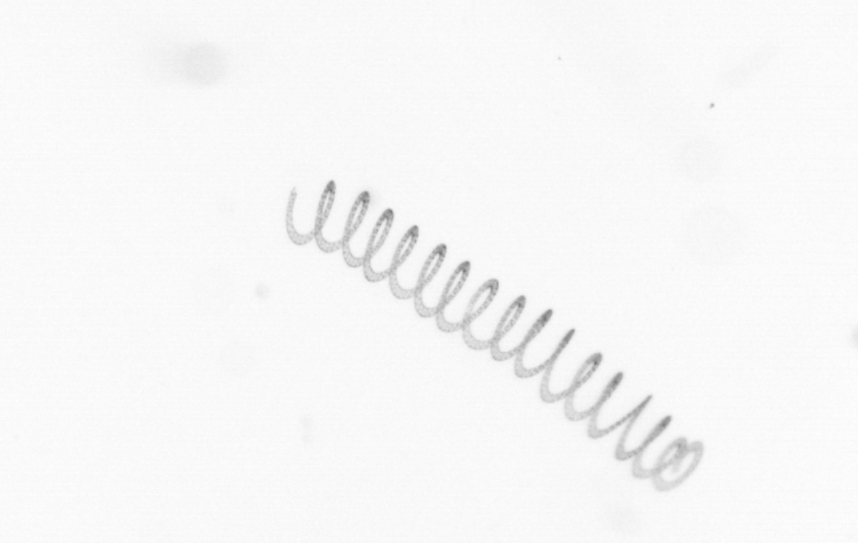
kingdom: Chromista
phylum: Ochrophyta
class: Bacillariophyceae
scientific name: Bacillariophyceae
